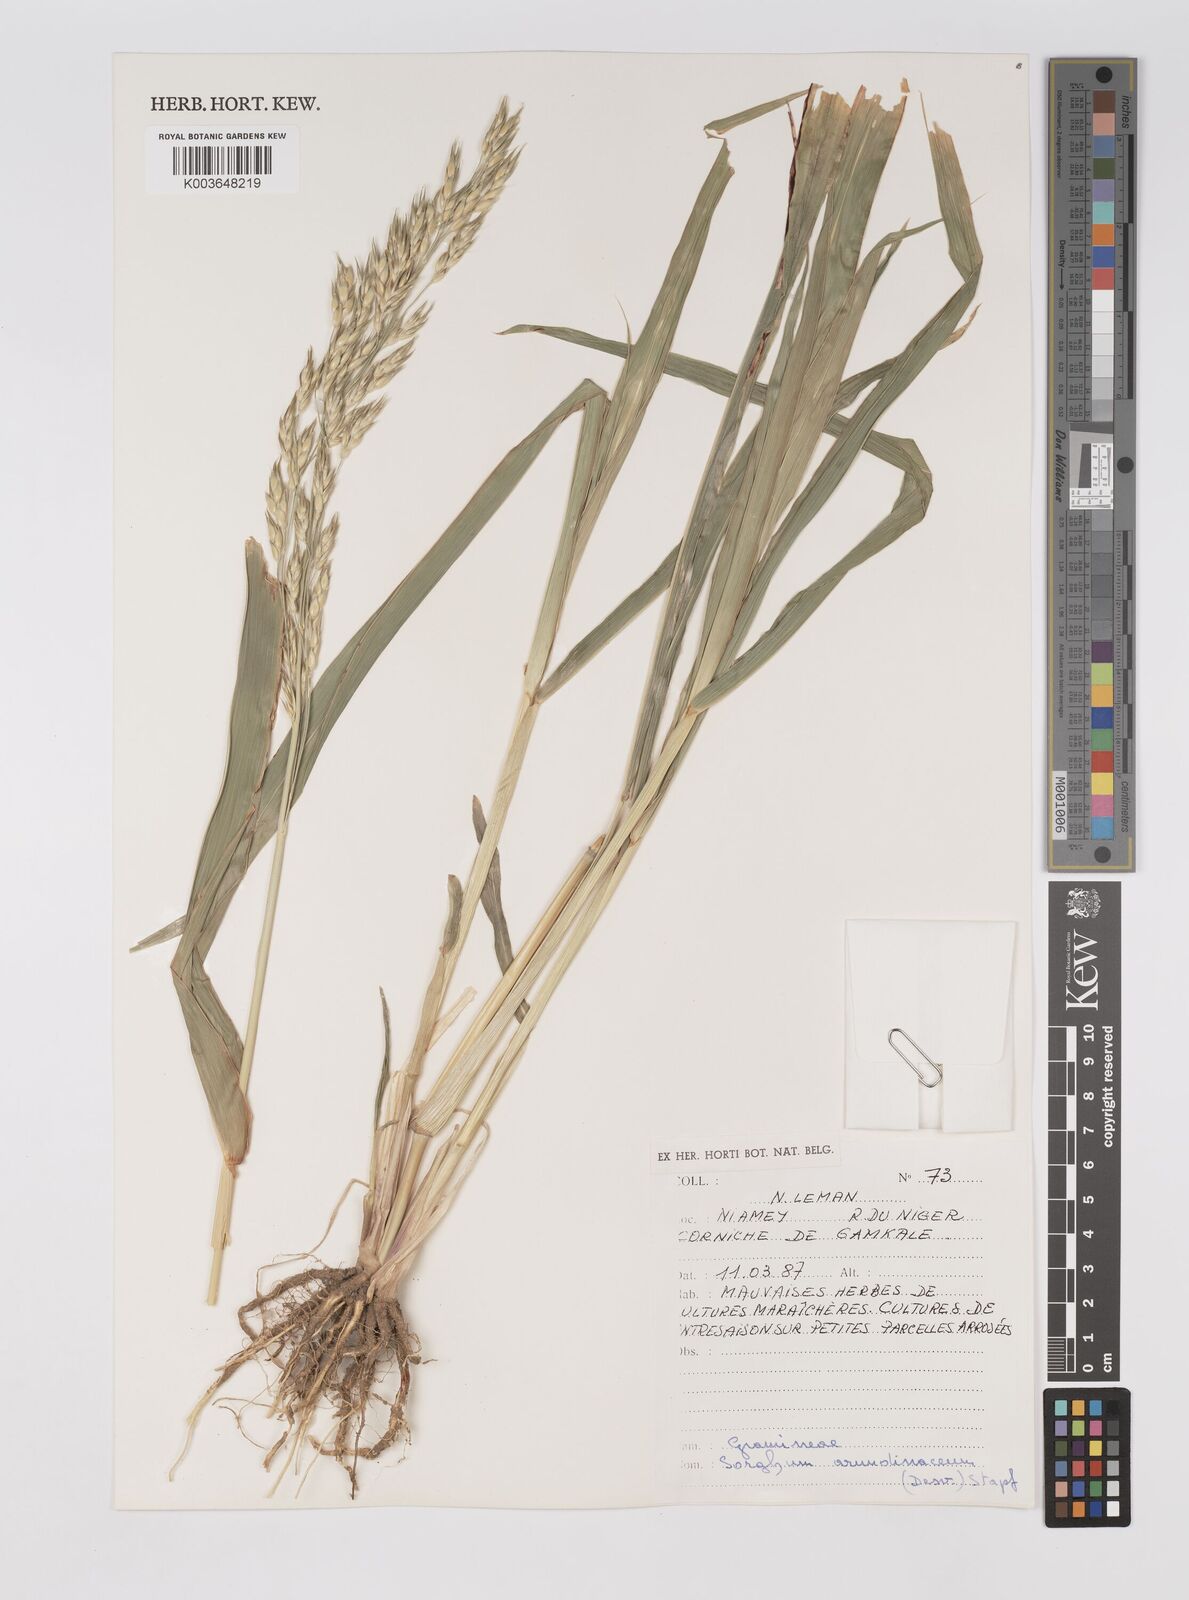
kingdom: Plantae
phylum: Tracheophyta
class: Liliopsida
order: Poales
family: Poaceae
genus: Sorghum
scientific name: Sorghum arundinaceum
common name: Sorghum
